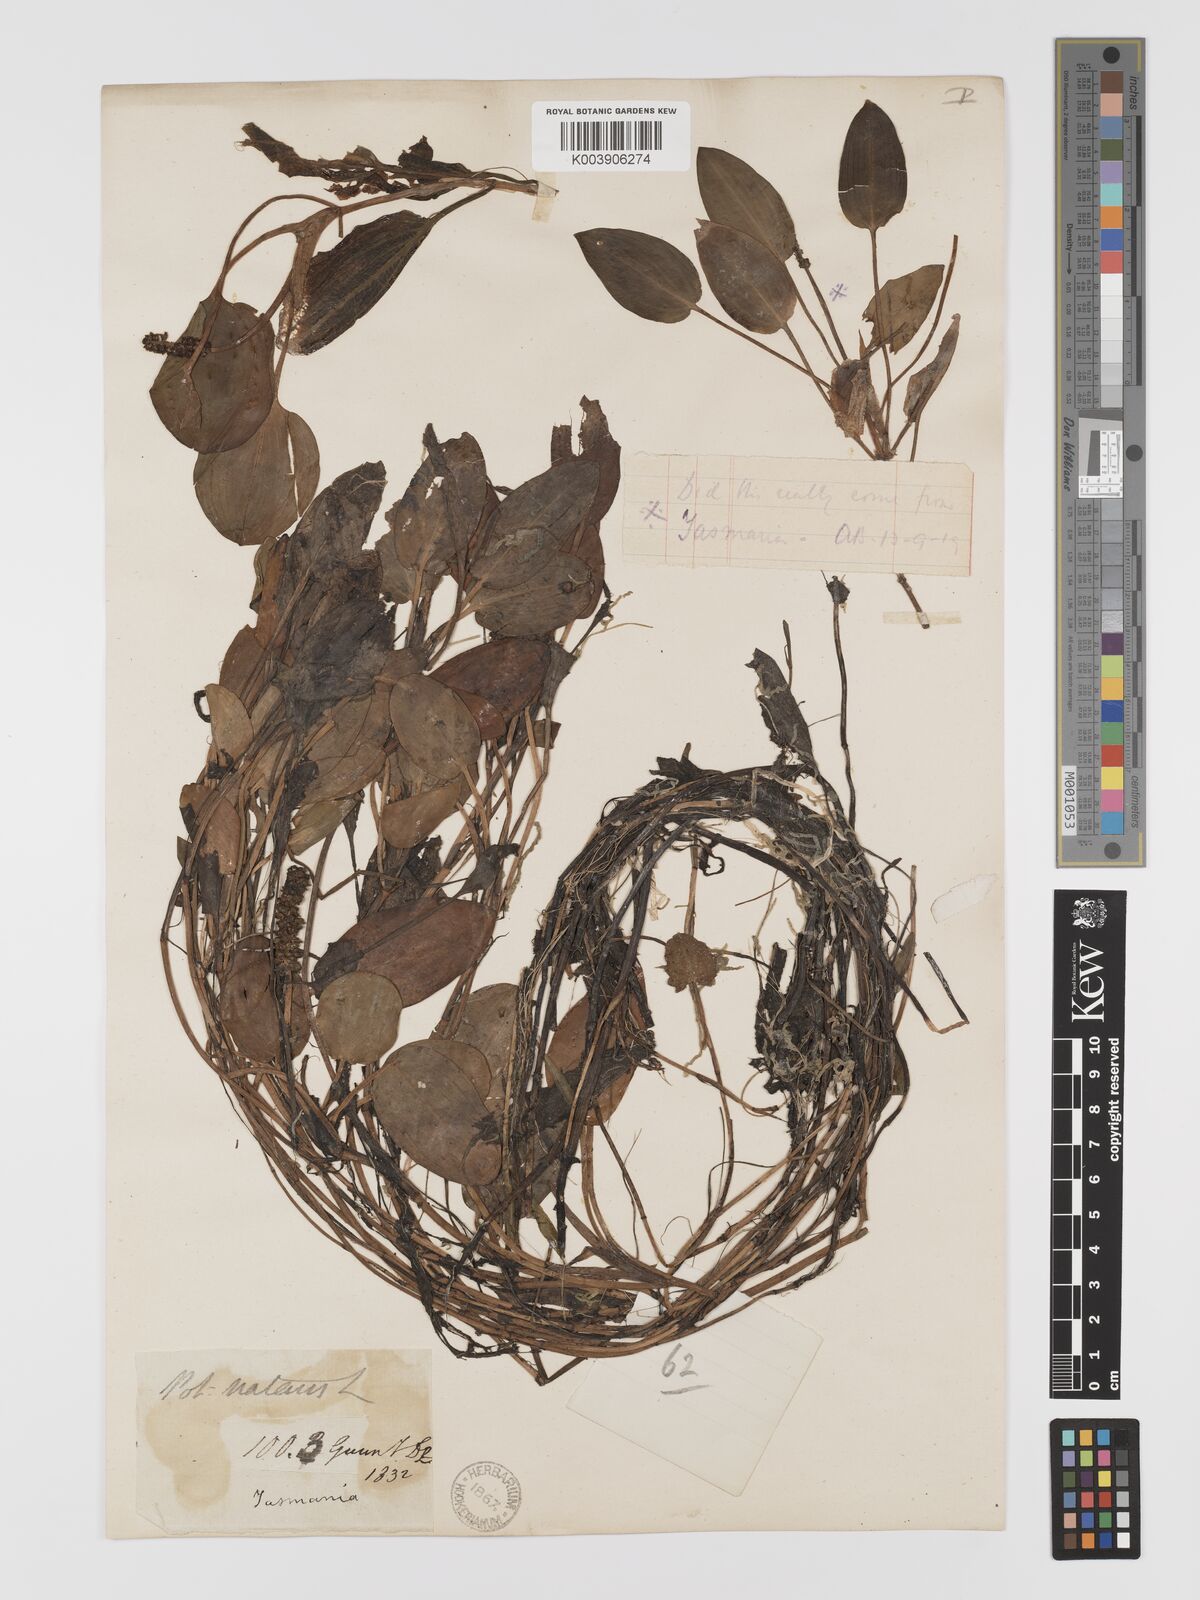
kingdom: Plantae
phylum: Tracheophyta
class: Liliopsida
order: Alismatales
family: Potamogetonaceae
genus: Potamogeton
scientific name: Potamogeton cheesemanii
